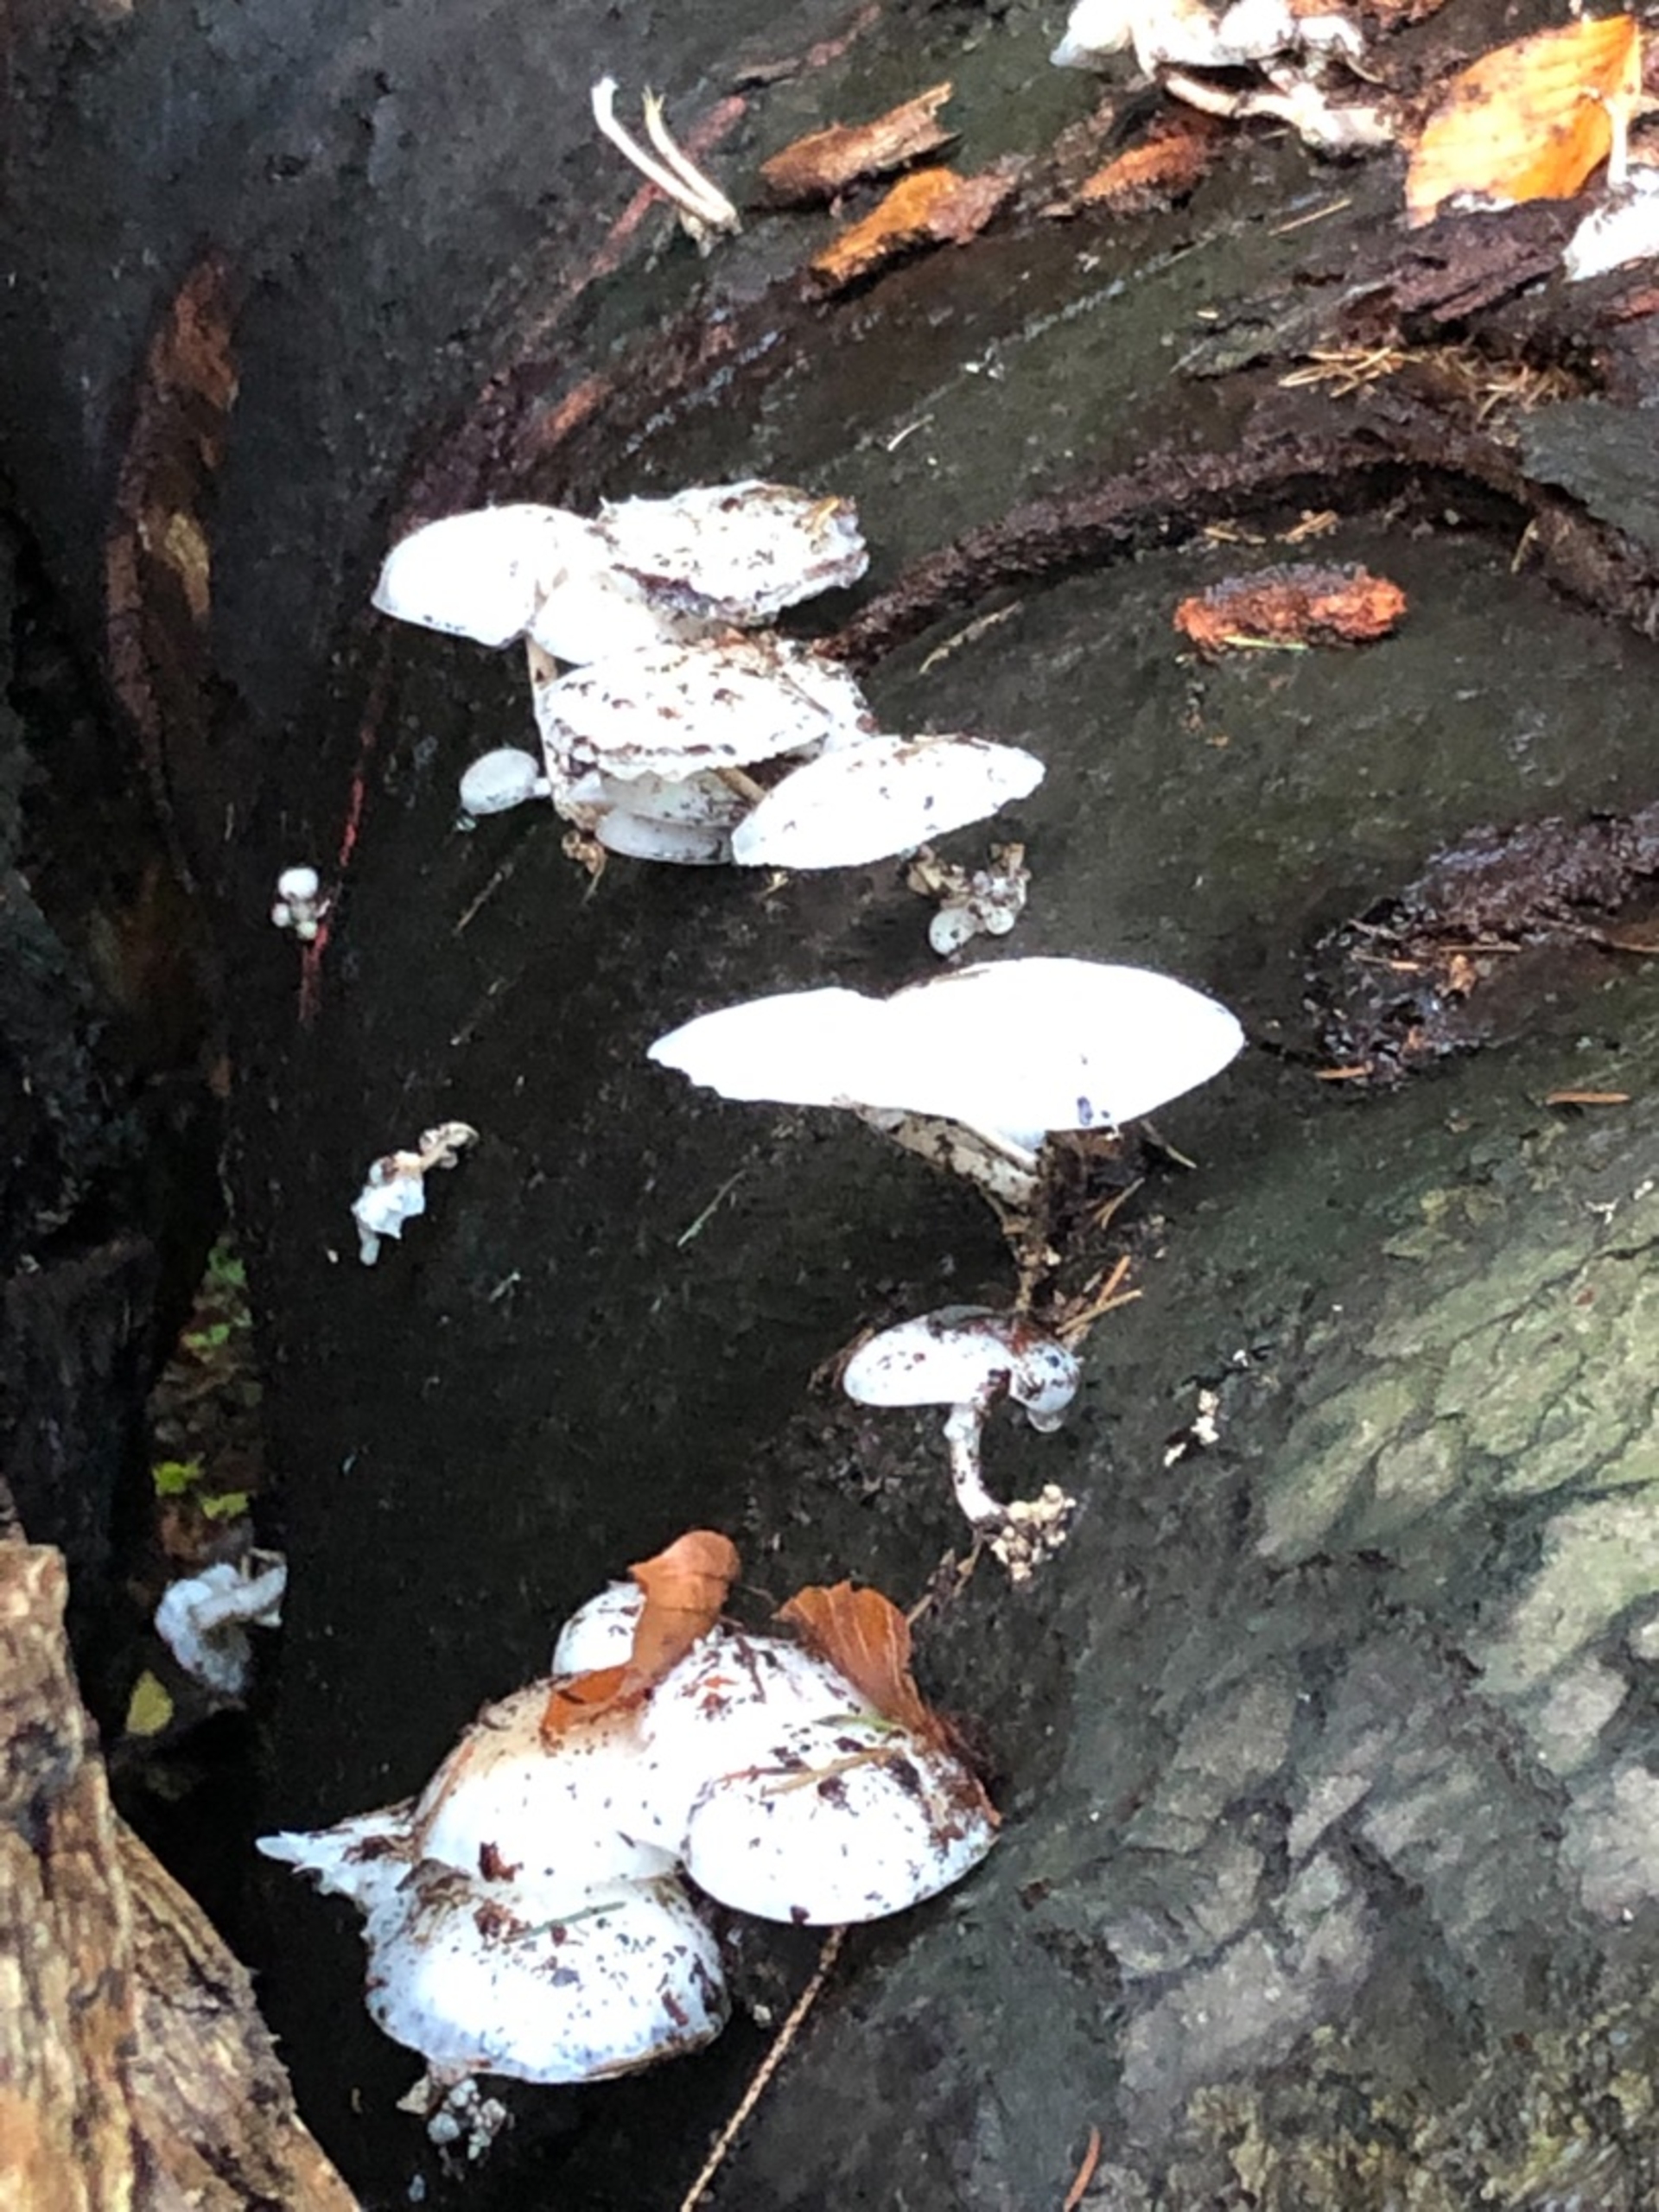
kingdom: Fungi
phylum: Basidiomycota
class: Agaricomycetes
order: Agaricales
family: Physalacriaceae
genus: Mucidula
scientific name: Mucidula mucida
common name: Porcelænshat
